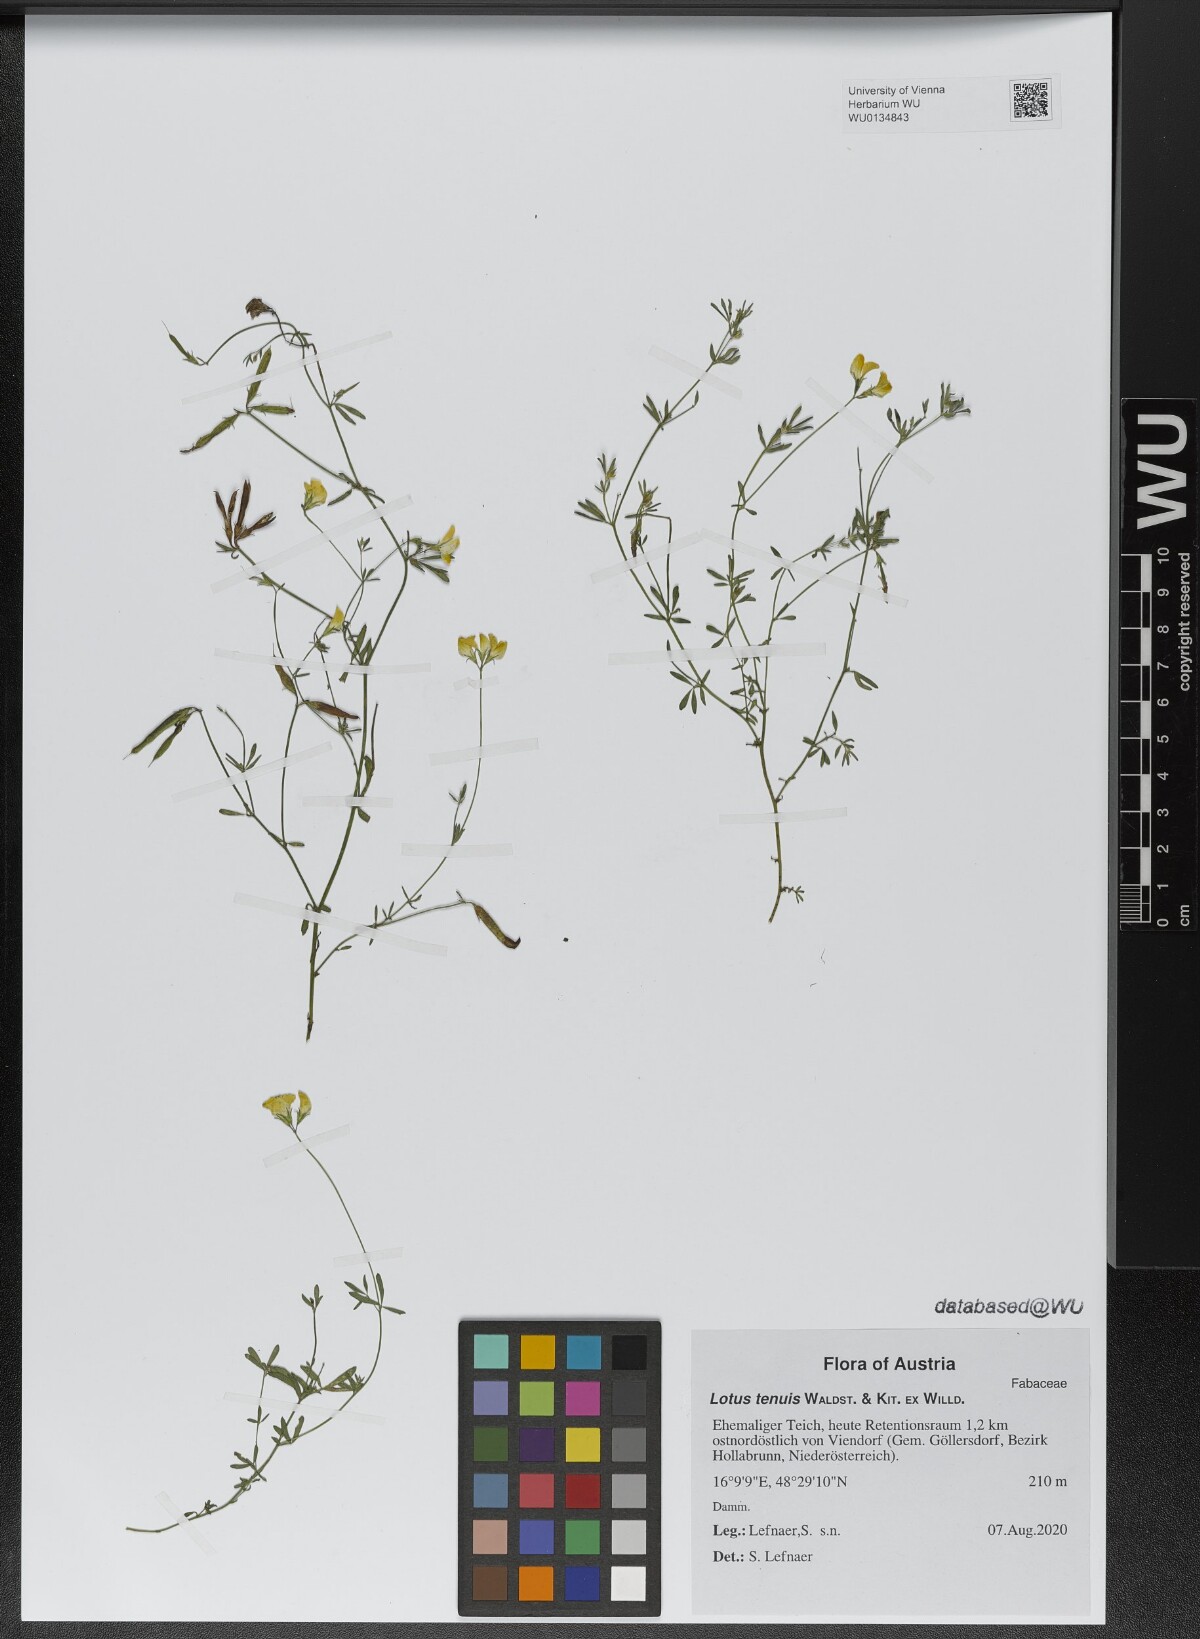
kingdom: Plantae
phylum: Tracheophyta
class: Magnoliopsida
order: Fabales
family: Fabaceae
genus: Lotus
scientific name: Lotus tenuis
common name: Narrow-leaved bird's-foot-trefoil
